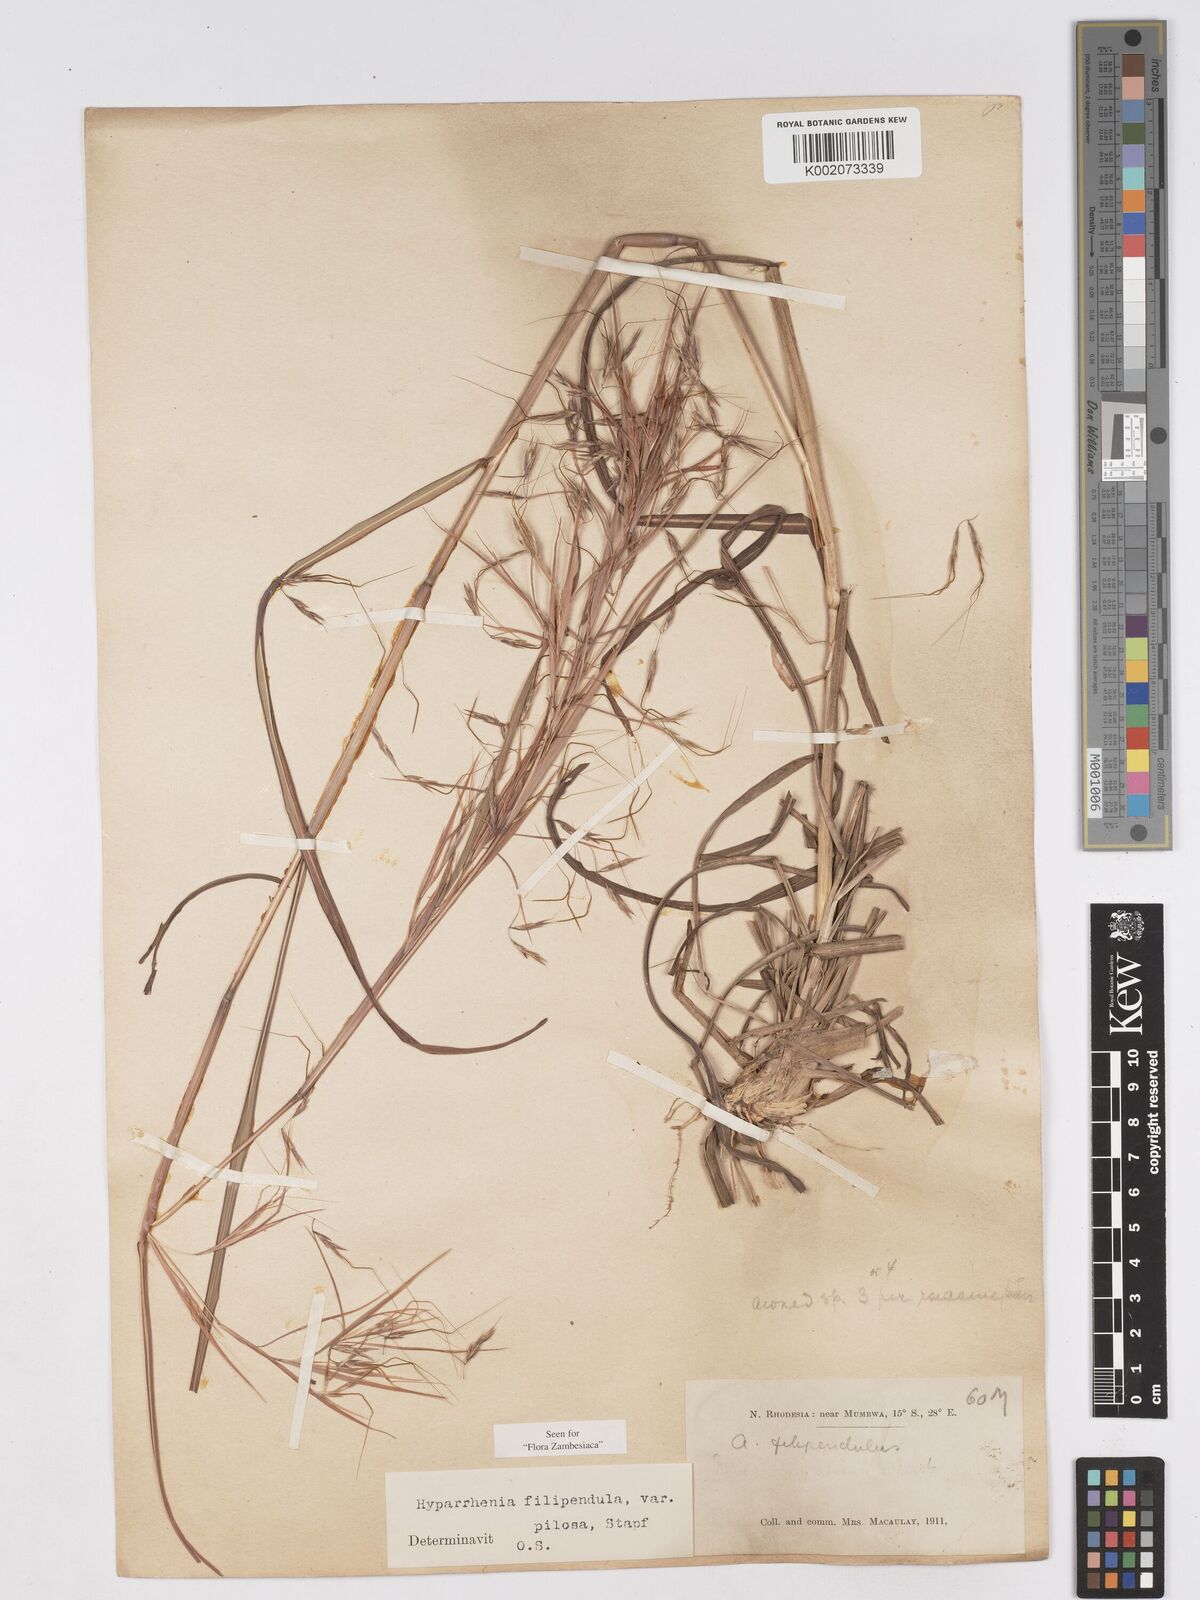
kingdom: Plantae
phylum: Tracheophyta
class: Liliopsida
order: Poales
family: Poaceae
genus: Hyparrhenia
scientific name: Hyparrhenia filipendula
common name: Tambookie grass
